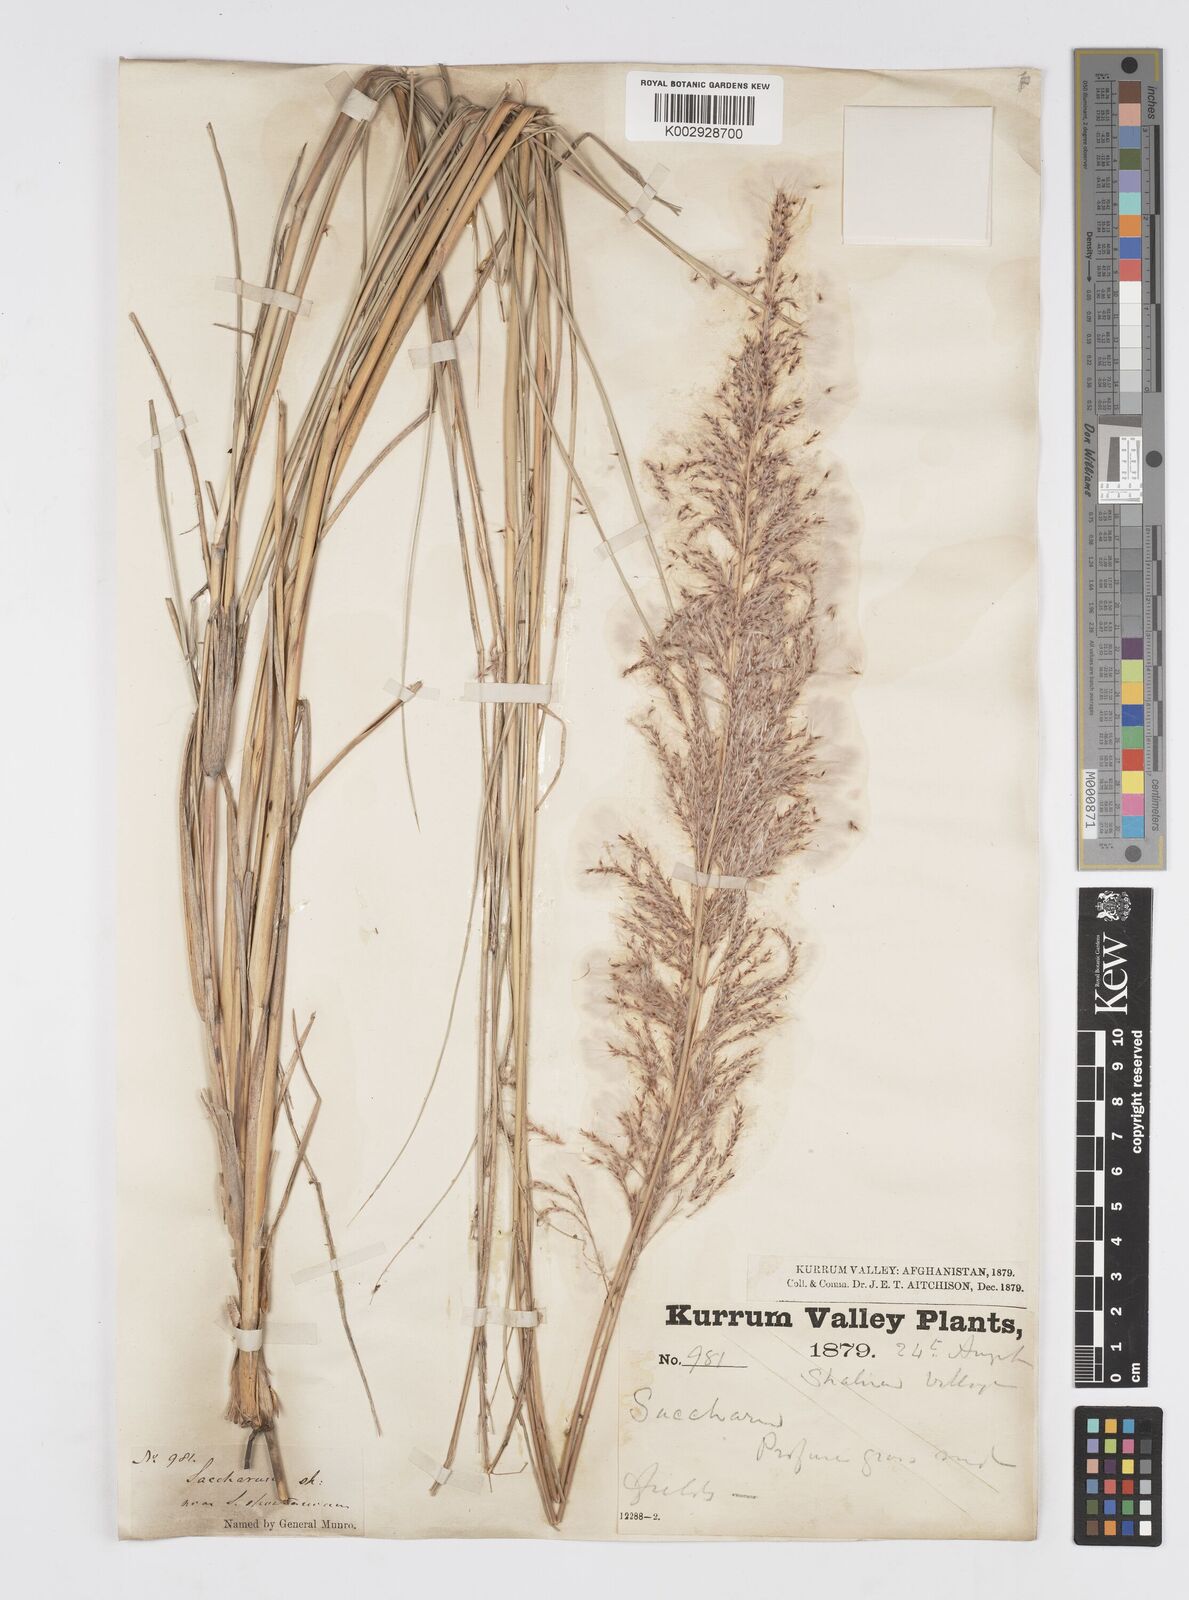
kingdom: Plantae
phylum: Tracheophyta
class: Liliopsida
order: Poales
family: Poaceae
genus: Saccharum
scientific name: Saccharum spontaneum
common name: Wild sugarcane
